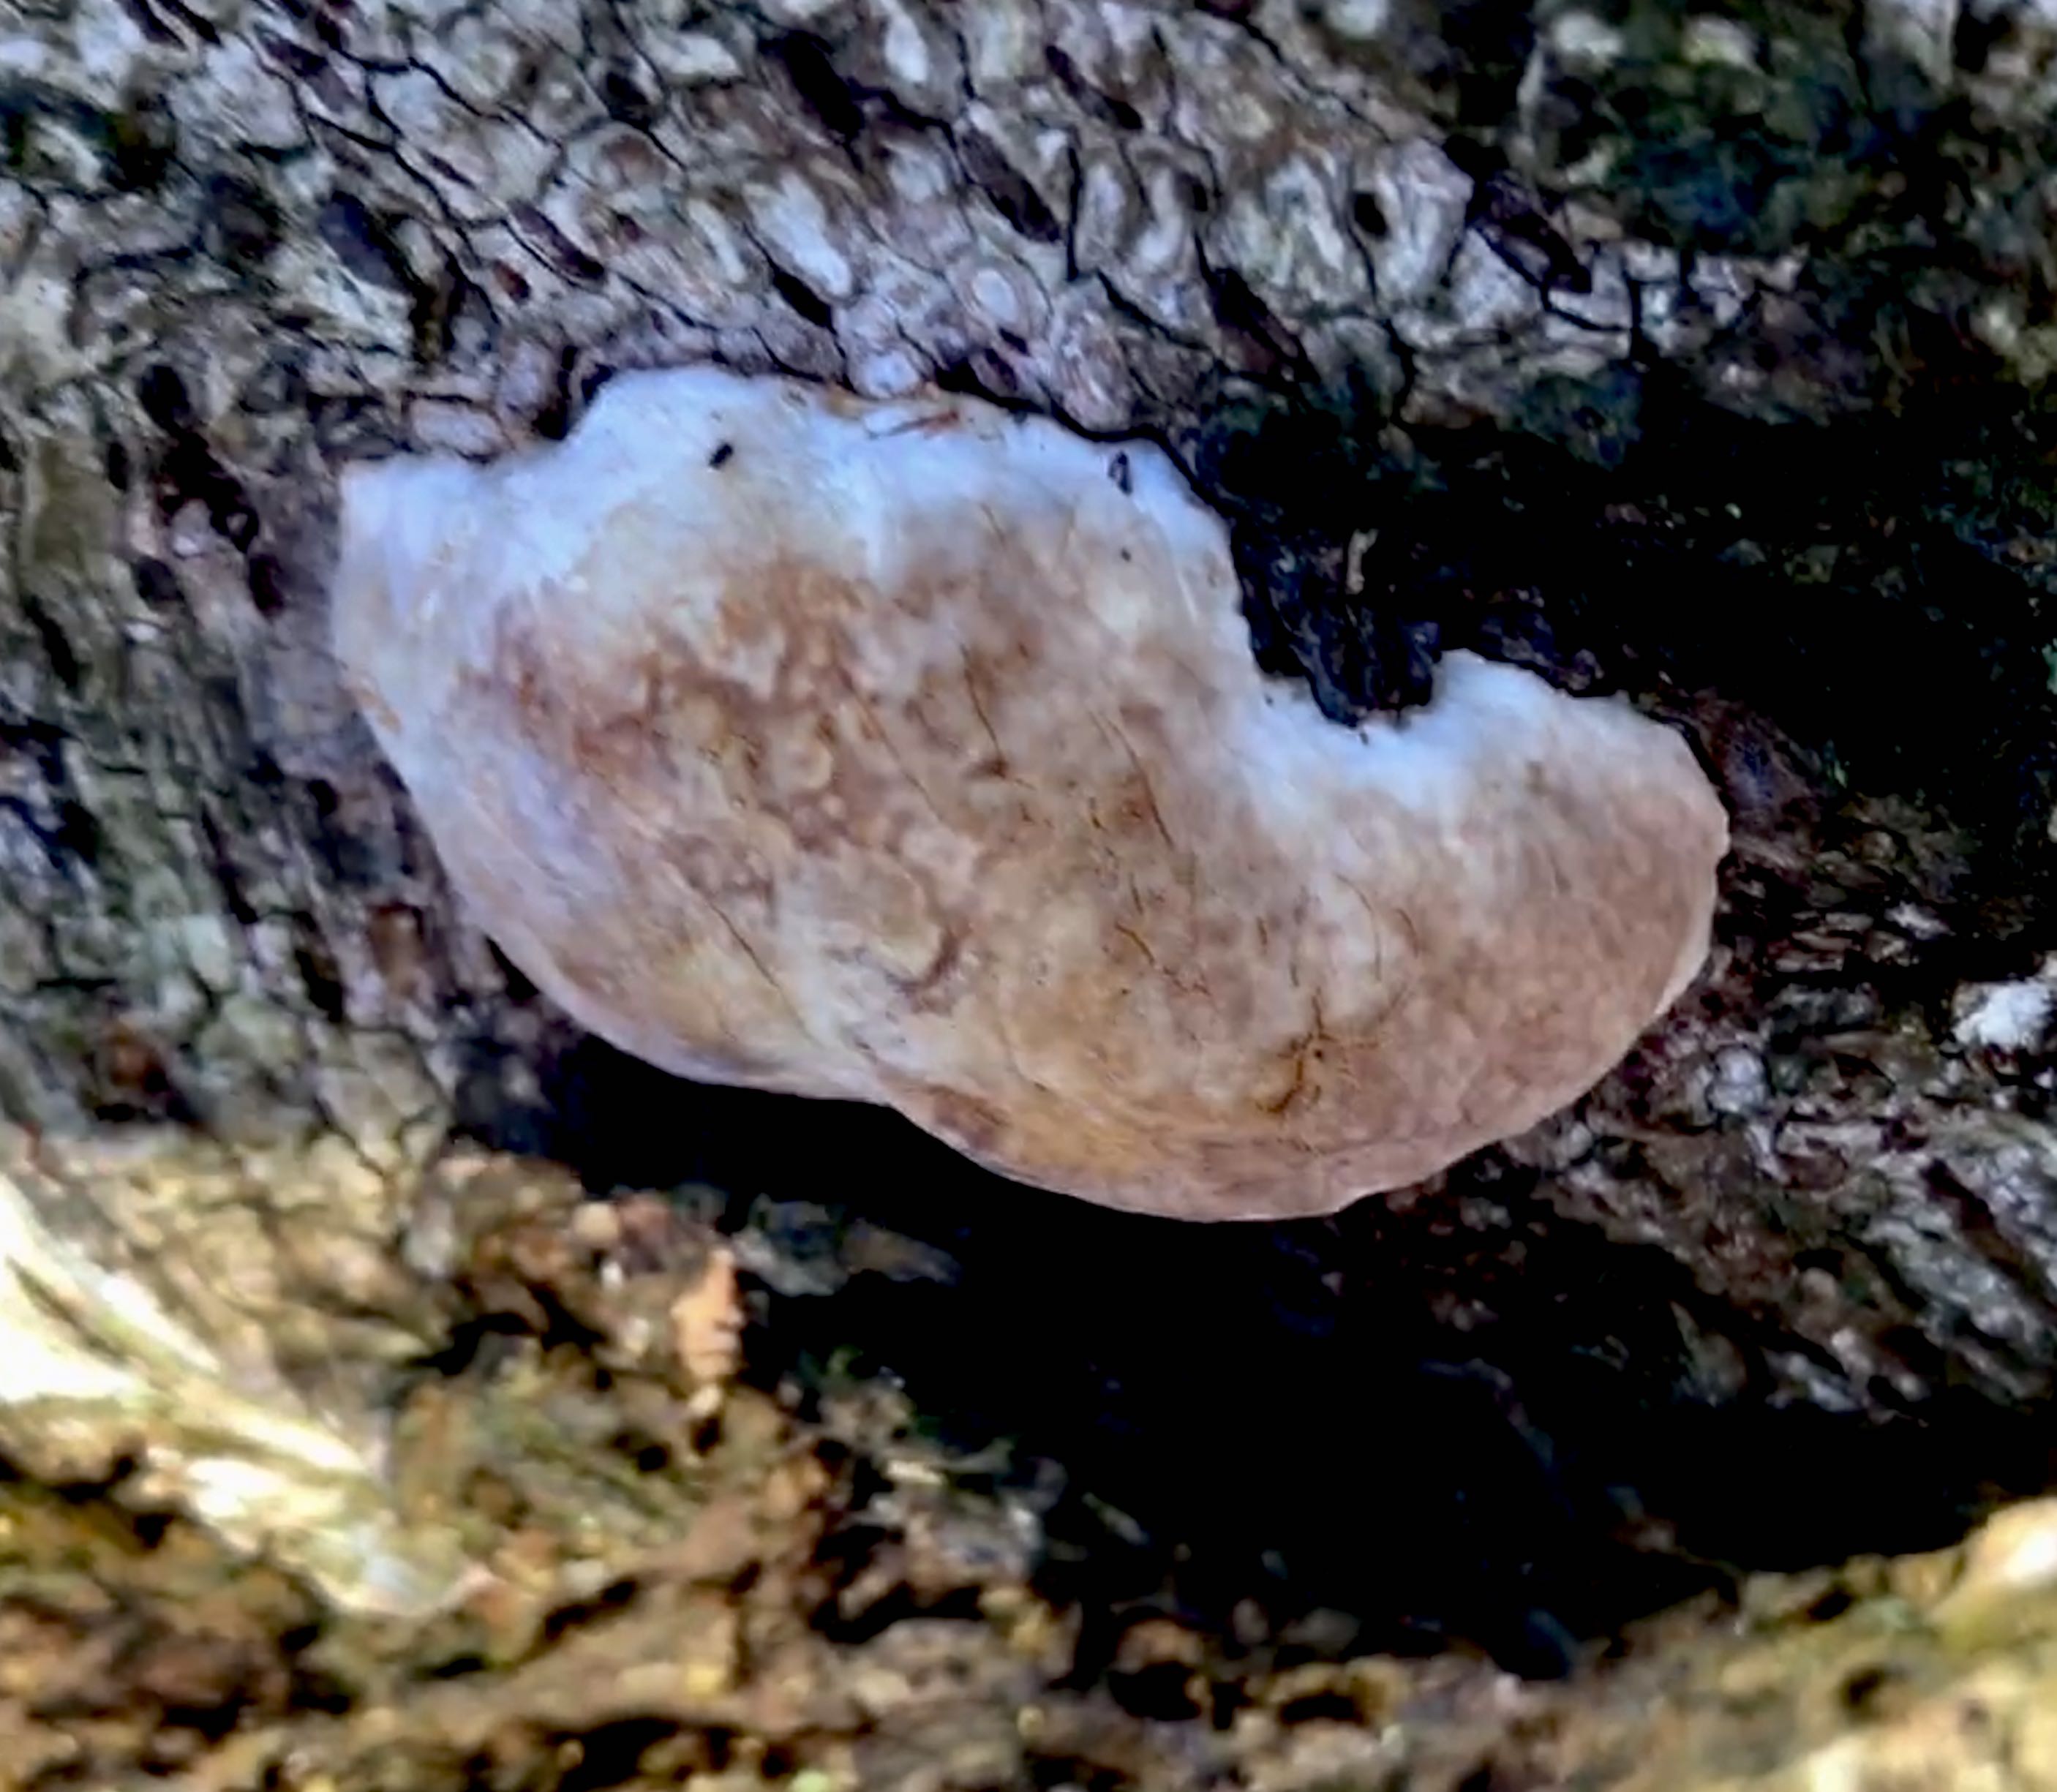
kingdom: Fungi
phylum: Basidiomycota
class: Agaricomycetes
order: Polyporales
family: Fomitopsidaceae
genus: Fomitopsis
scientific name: Fomitopsis pinicola
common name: randbæltet hovporesvamp
